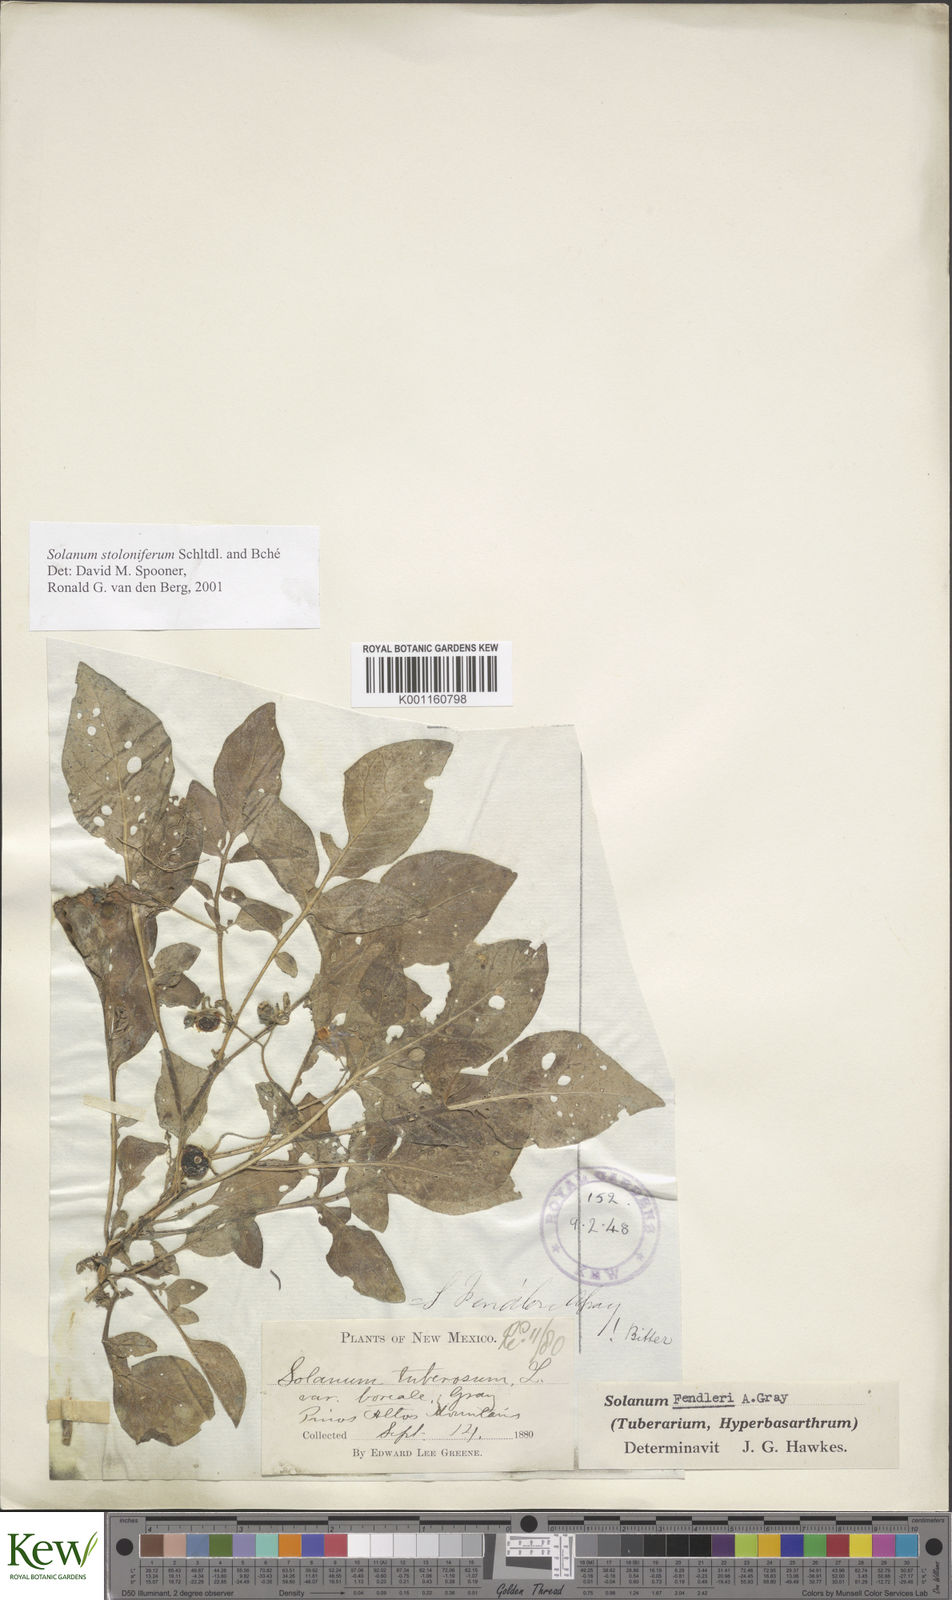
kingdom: Plantae
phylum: Tracheophyta
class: Magnoliopsida
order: Solanales
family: Solanaceae
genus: Solanum
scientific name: Solanum stoloniferum
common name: Fendler's nighshade
